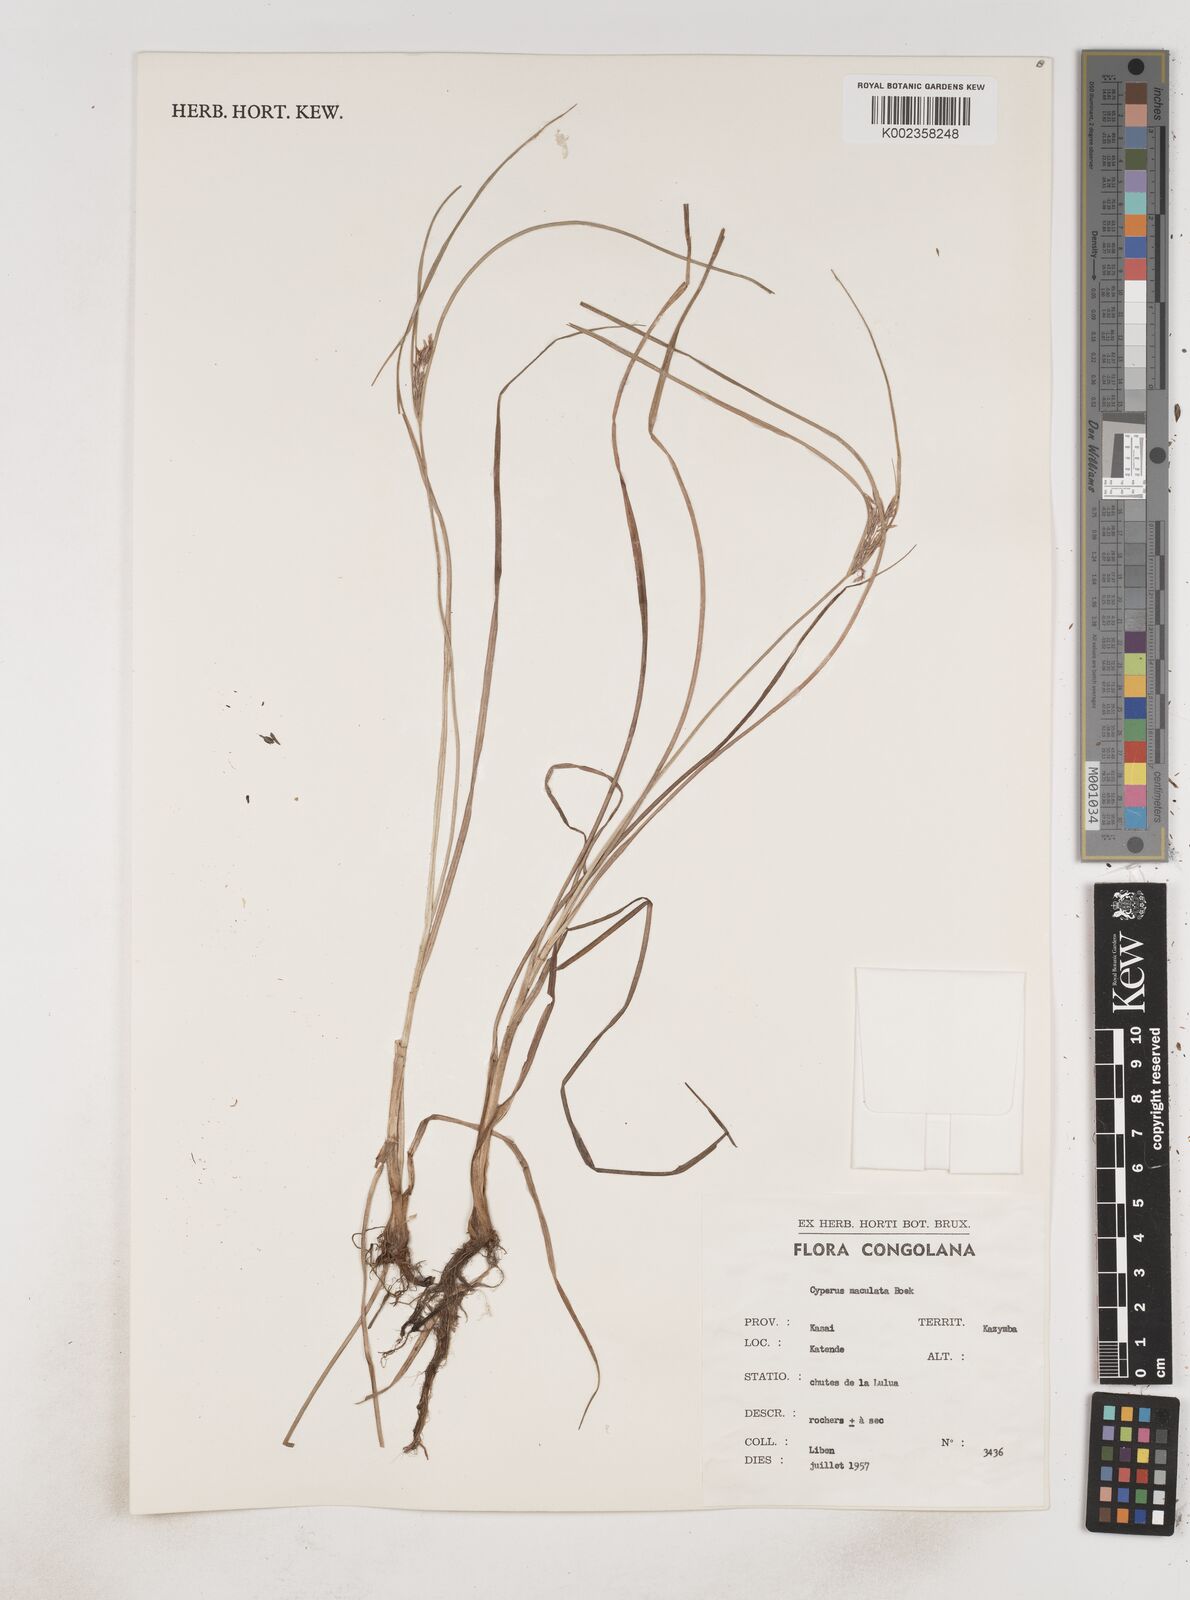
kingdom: Plantae
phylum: Tracheophyta
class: Liliopsida
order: Poales
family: Cyperaceae
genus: Cyperus
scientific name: Cyperus maculatus
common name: Maculated sedge
